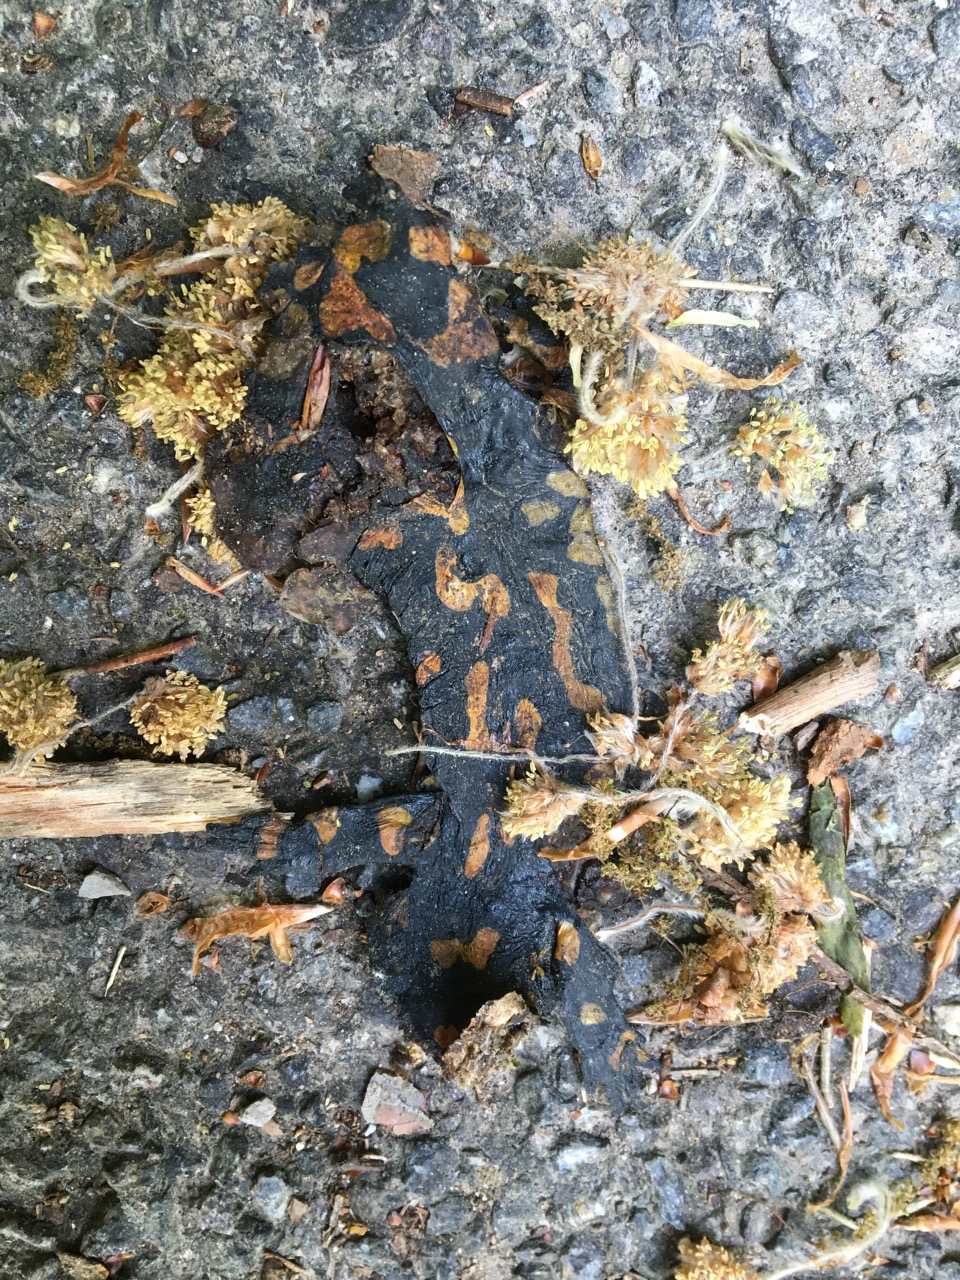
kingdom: Animalia
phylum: Chordata
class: Amphibia
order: Caudata
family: Salamandridae
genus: Salamandra
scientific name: Salamandra salamandra
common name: Fire salamander
